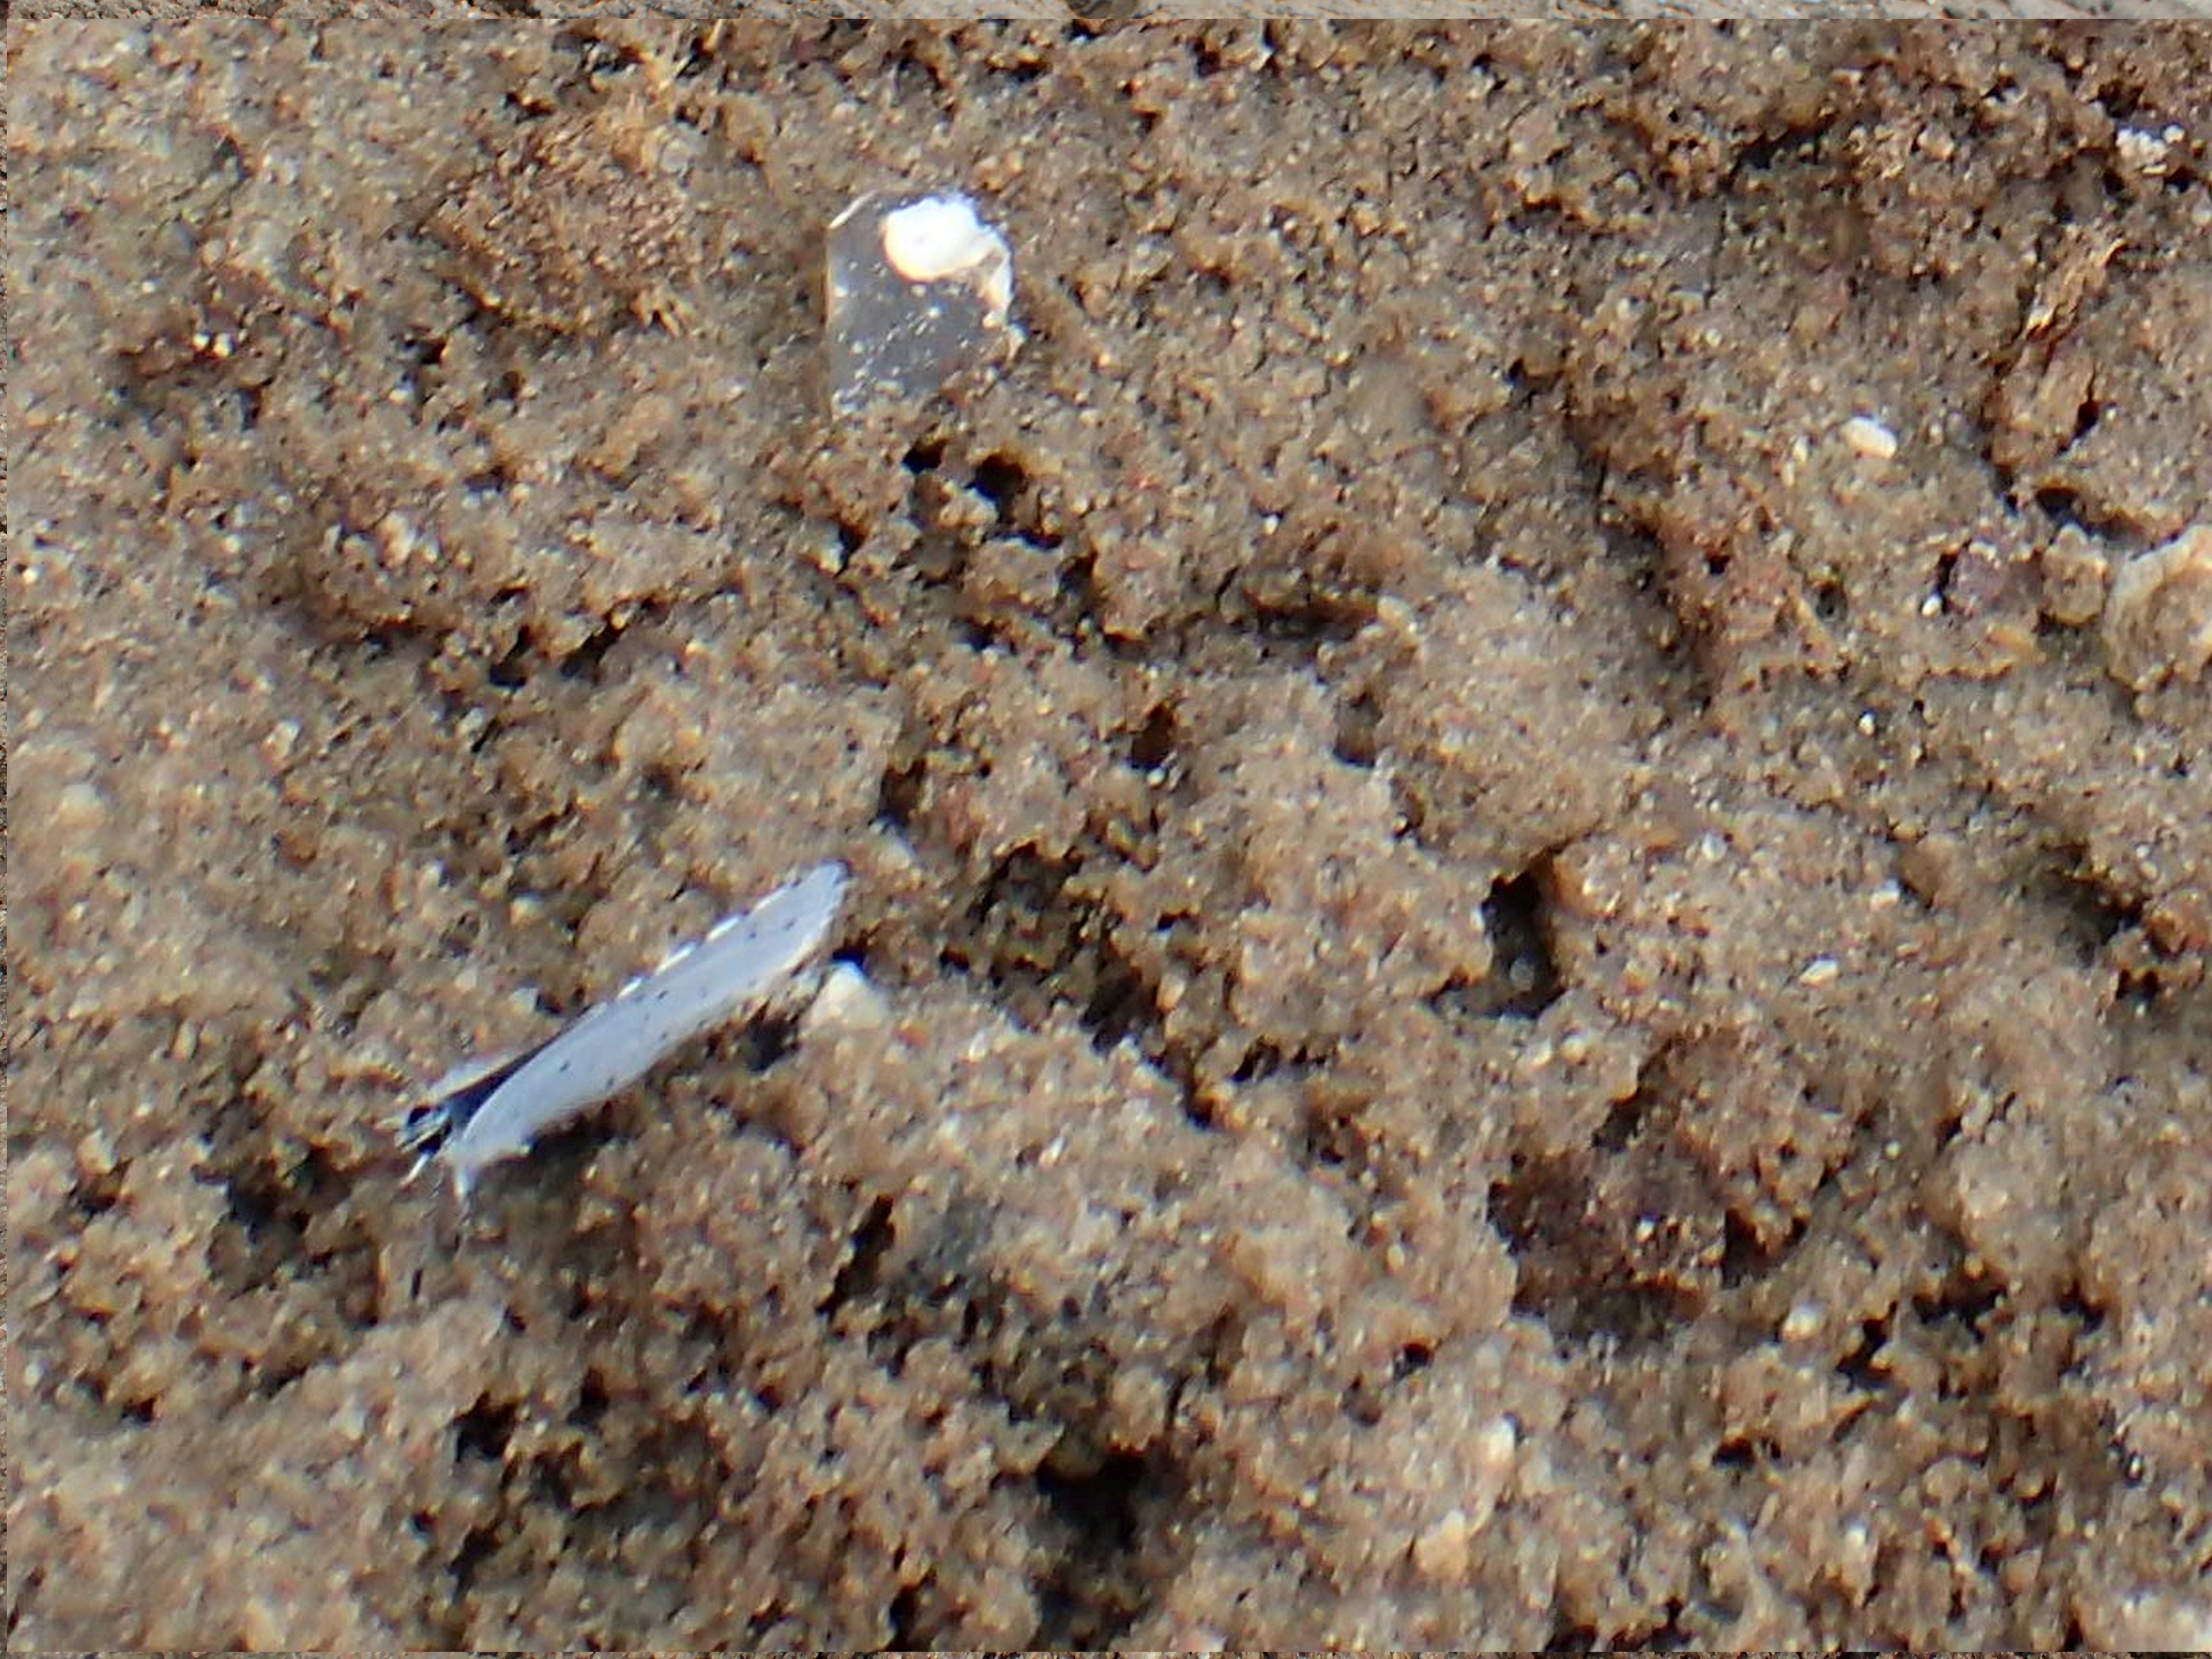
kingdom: Animalia
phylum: Arthropoda
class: Insecta
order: Lepidoptera
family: Lycaenidae
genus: Celastrina
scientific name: Celastrina argiolus
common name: Skovblåfugl
